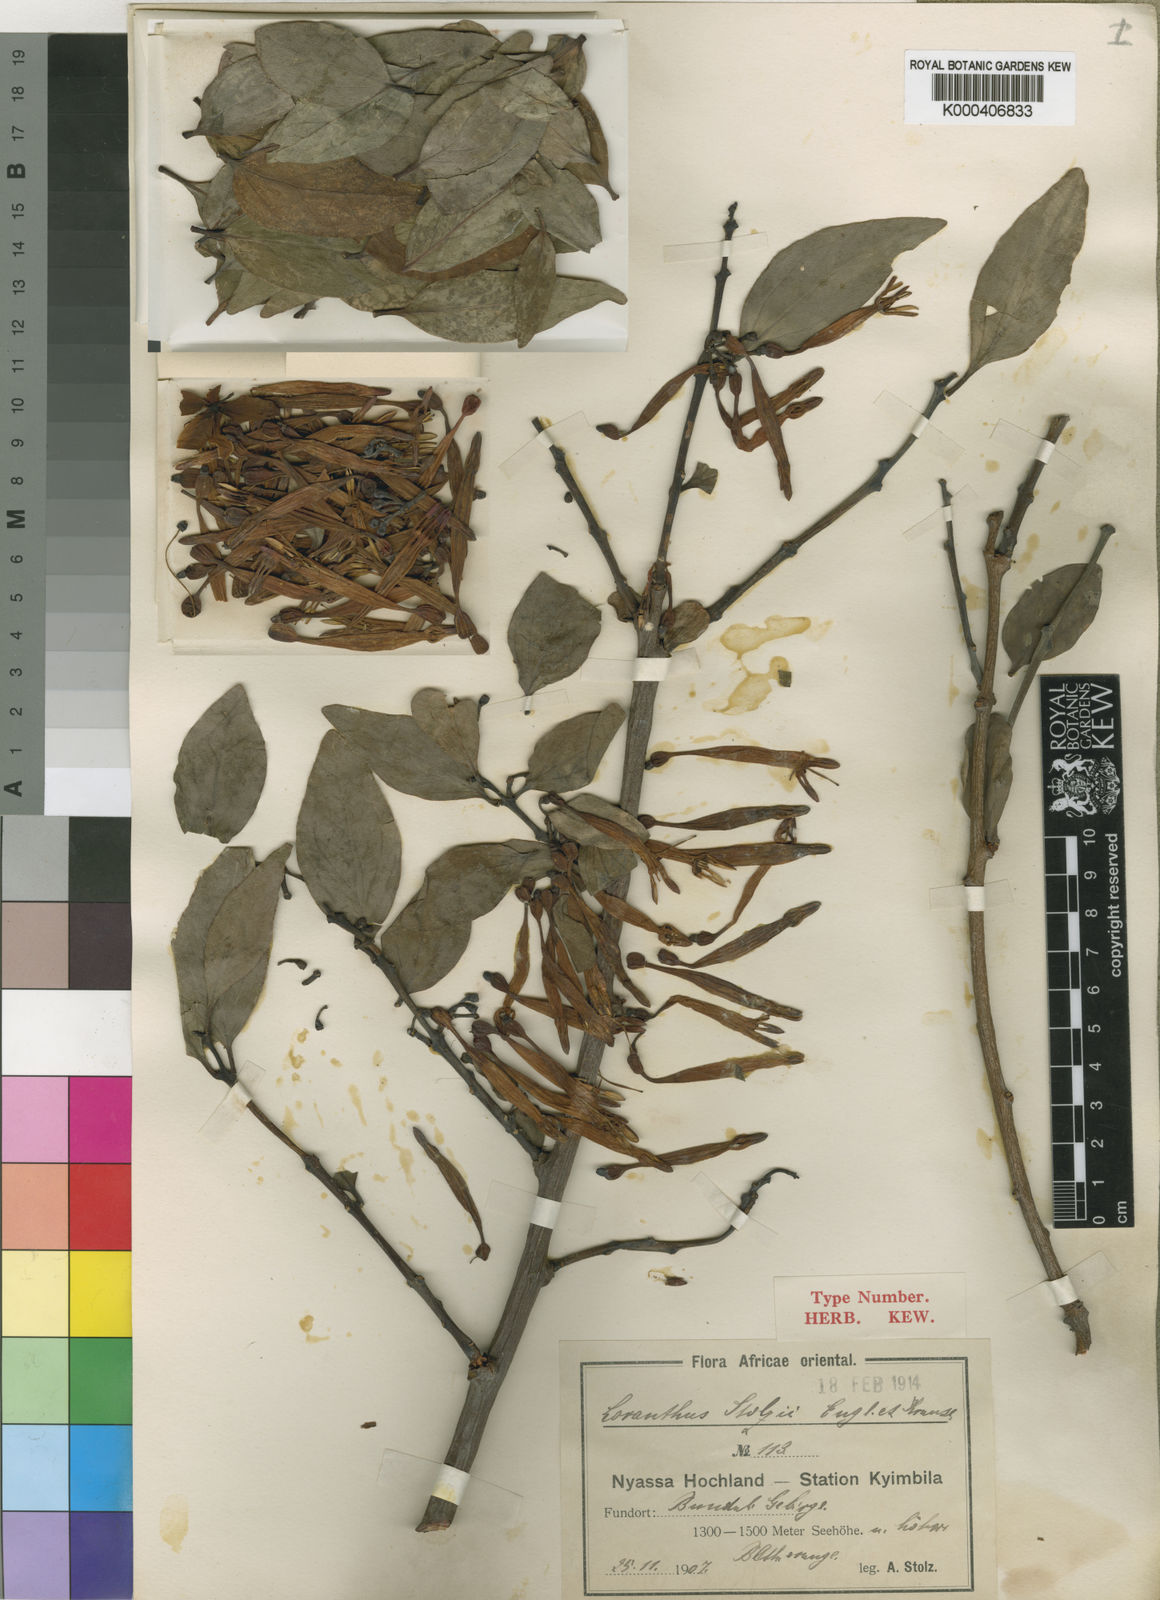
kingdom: Plantae
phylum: Tracheophyta
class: Magnoliopsida
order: Santalales
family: Loranthaceae
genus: Agelanthus
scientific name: Agelanthus nyasicus
